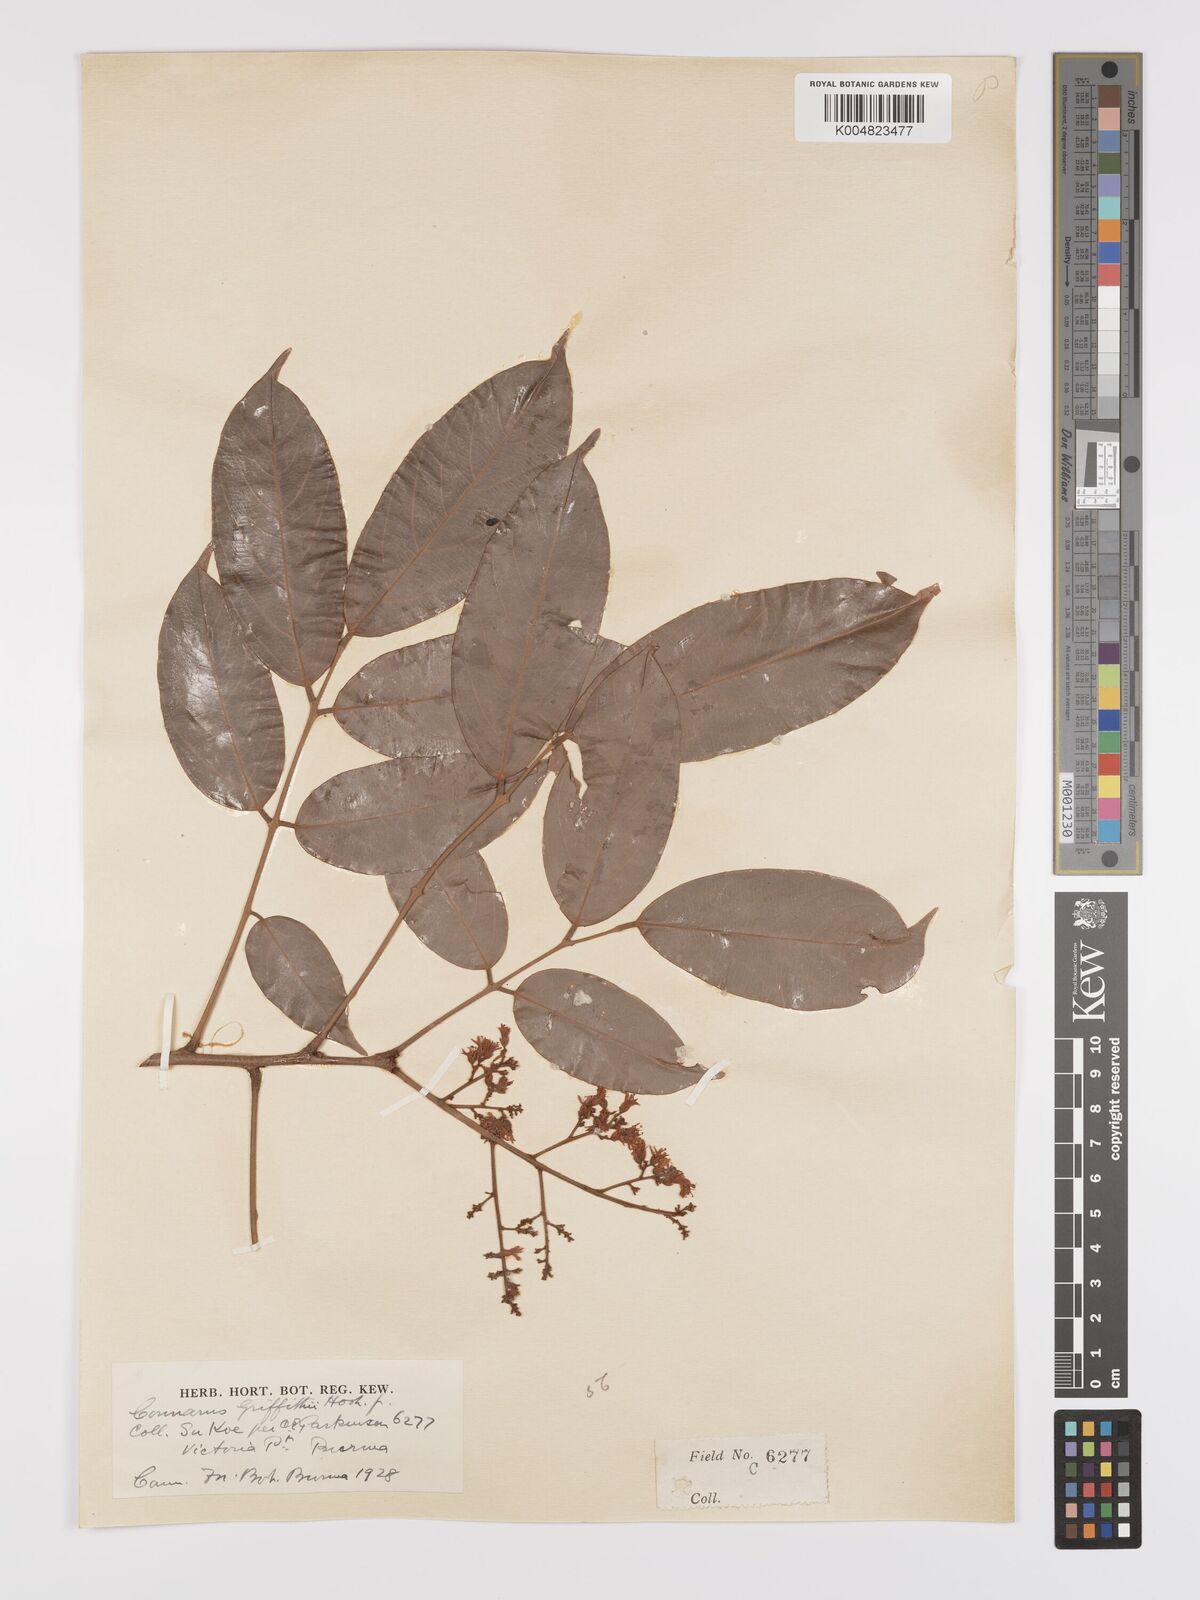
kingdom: Plantae
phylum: Tracheophyta
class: Magnoliopsida
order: Oxalidales
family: Connaraceae
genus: Connarus
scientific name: Connarus semidecandrus
